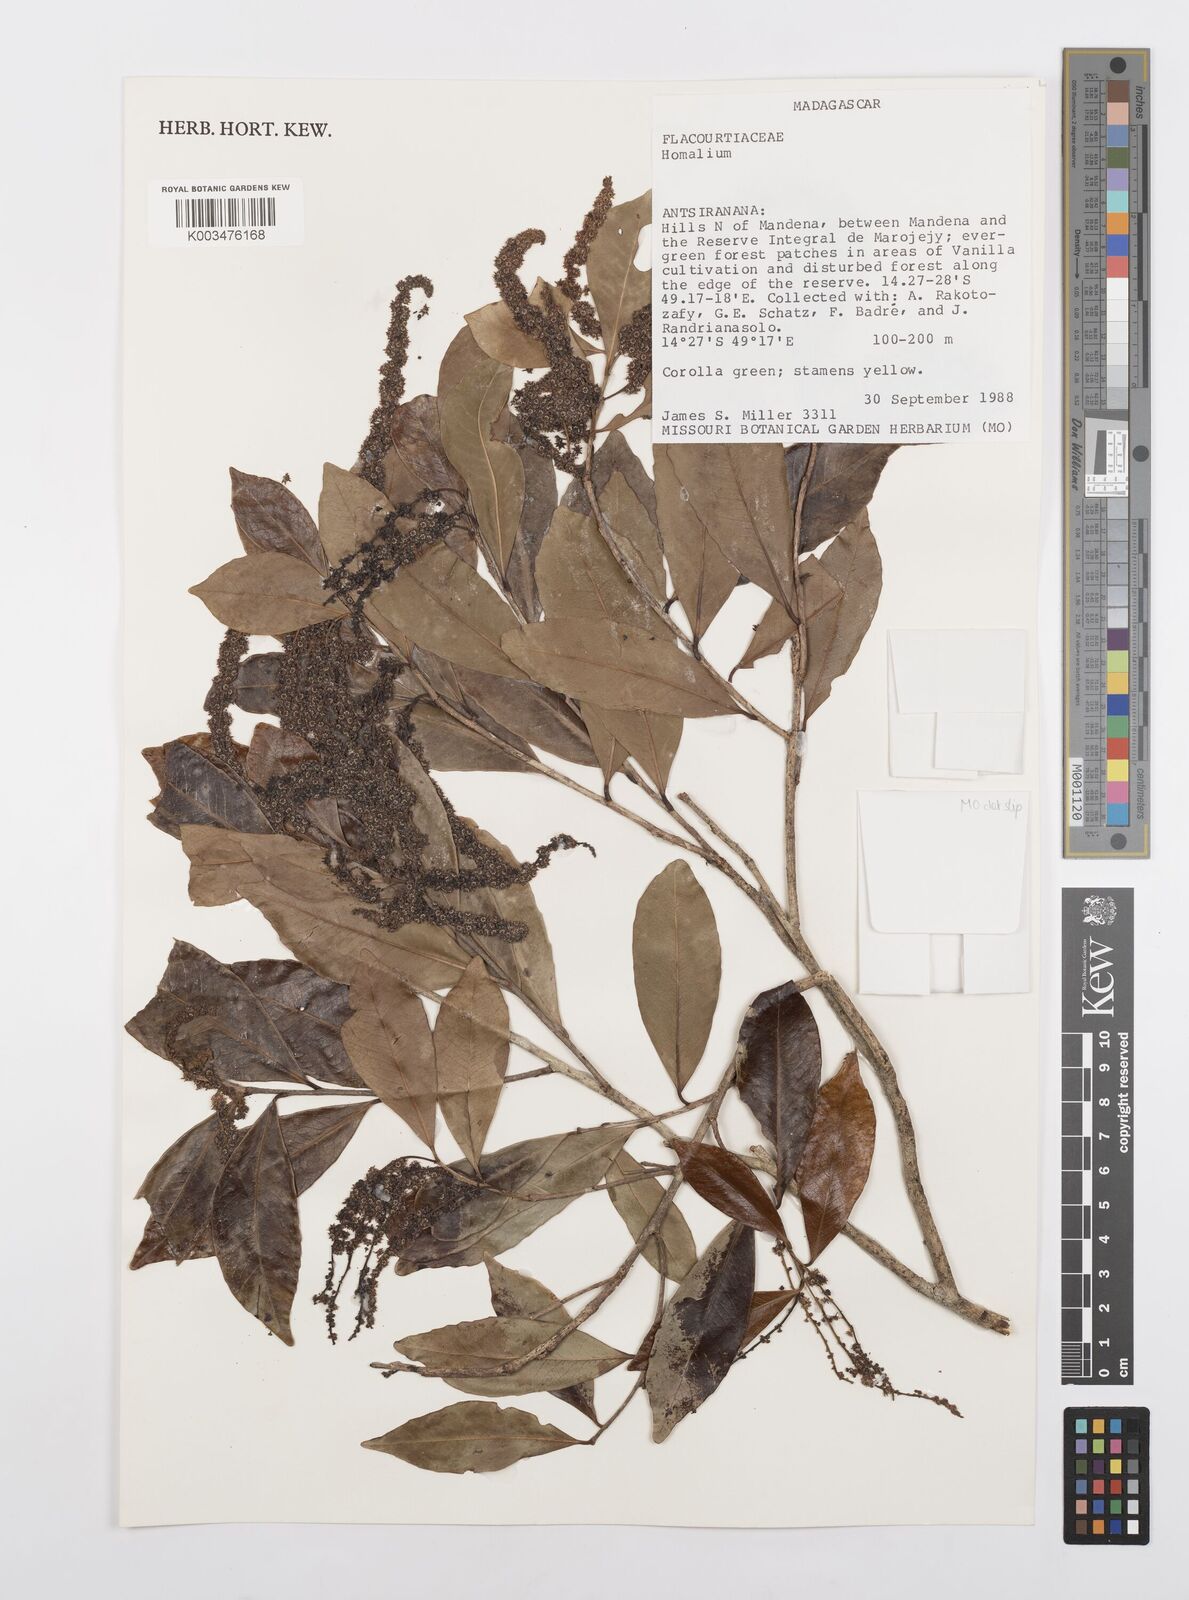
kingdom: Plantae
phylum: Tracheophyta
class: Magnoliopsida
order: Malpighiales
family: Salicaceae
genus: Homalium
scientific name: Homalium
